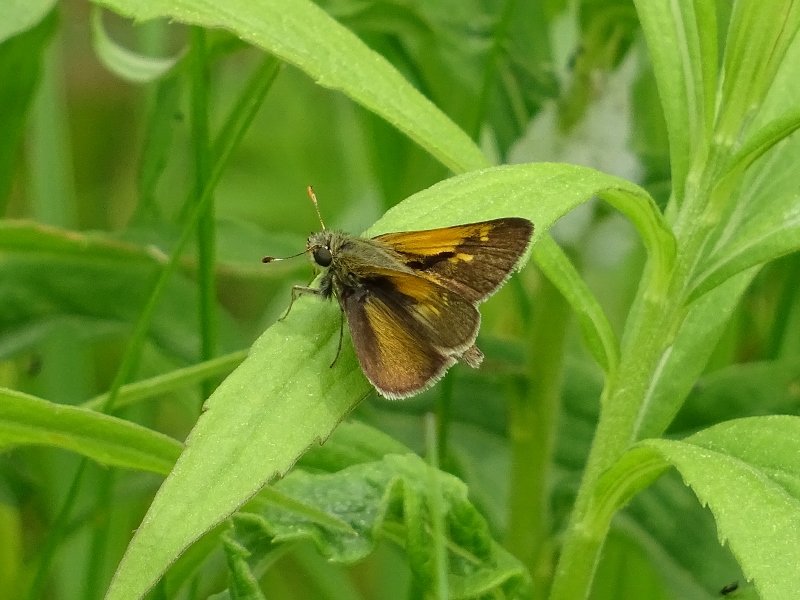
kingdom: Animalia
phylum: Arthropoda
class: Insecta
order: Lepidoptera
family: Hesperiidae
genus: Polites
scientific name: Polites themistocles
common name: Tawny-edged Skipper
